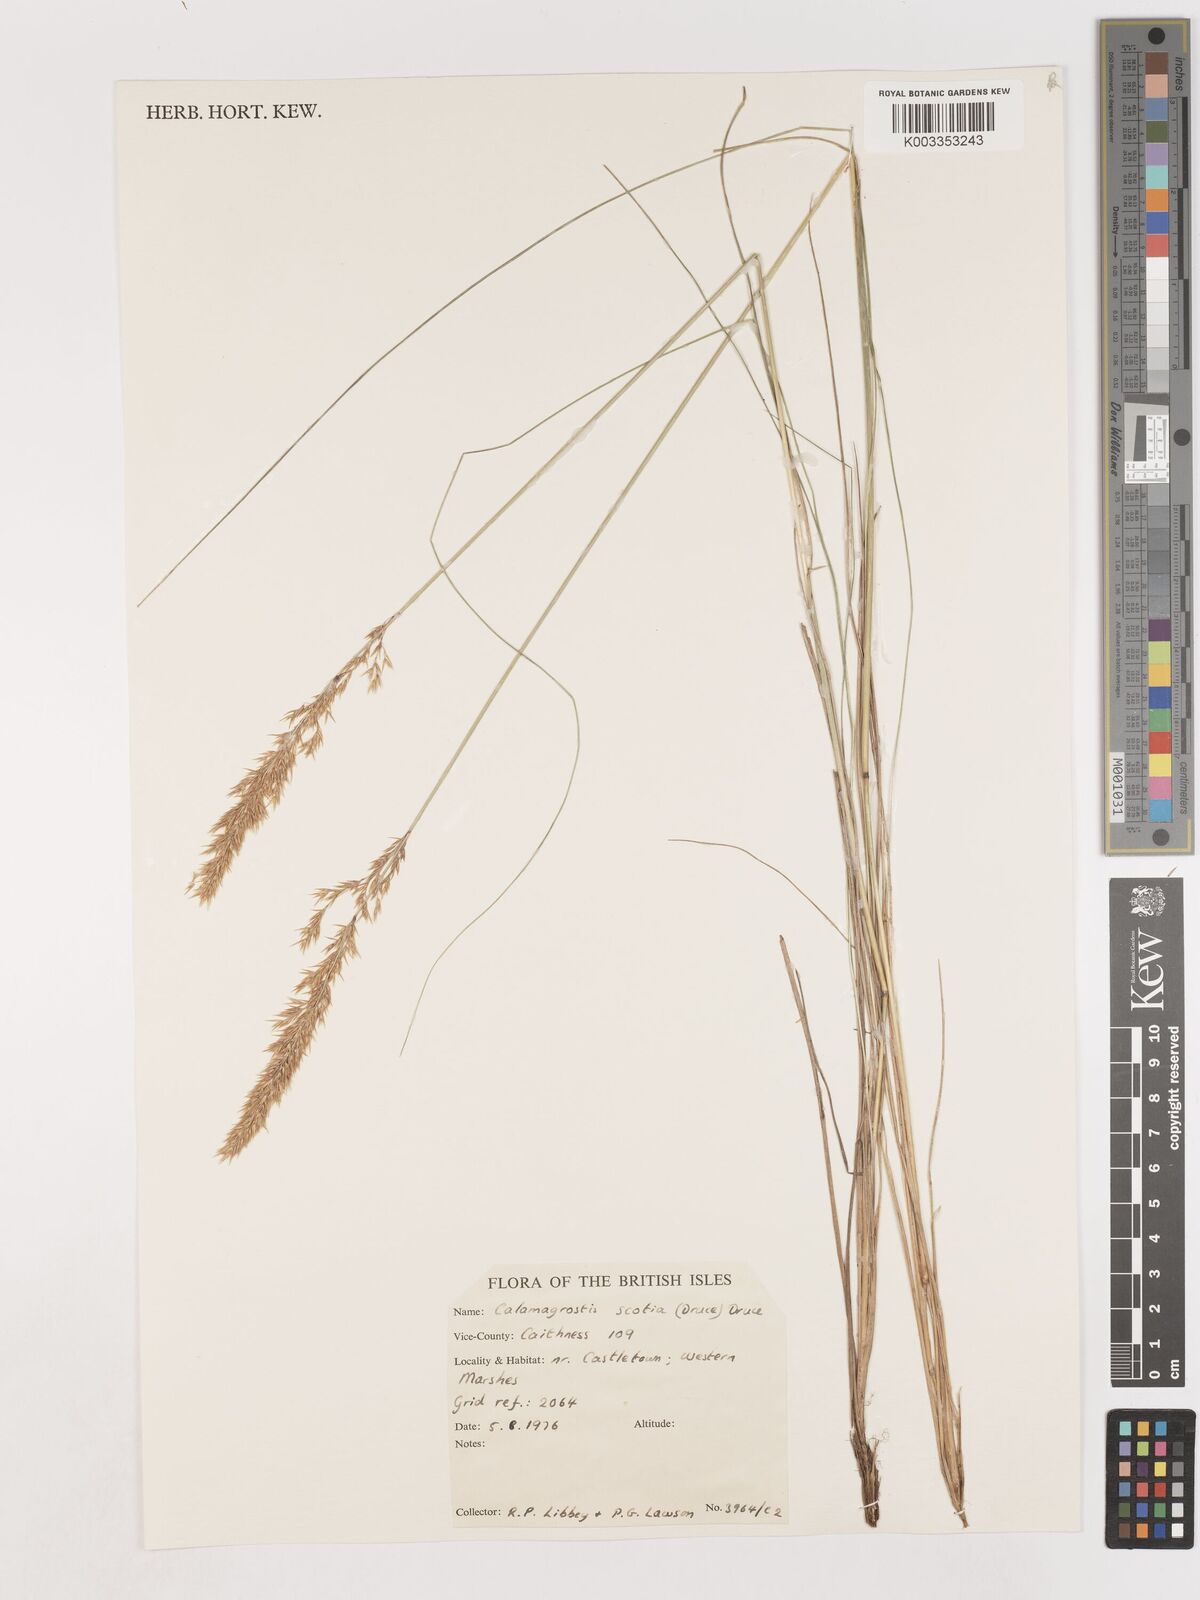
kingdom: Plantae
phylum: Tracheophyta
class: Liliopsida
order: Poales
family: Poaceae
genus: Calamagrostis
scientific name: Calamagrostis scotica
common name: Scottish small-reed
